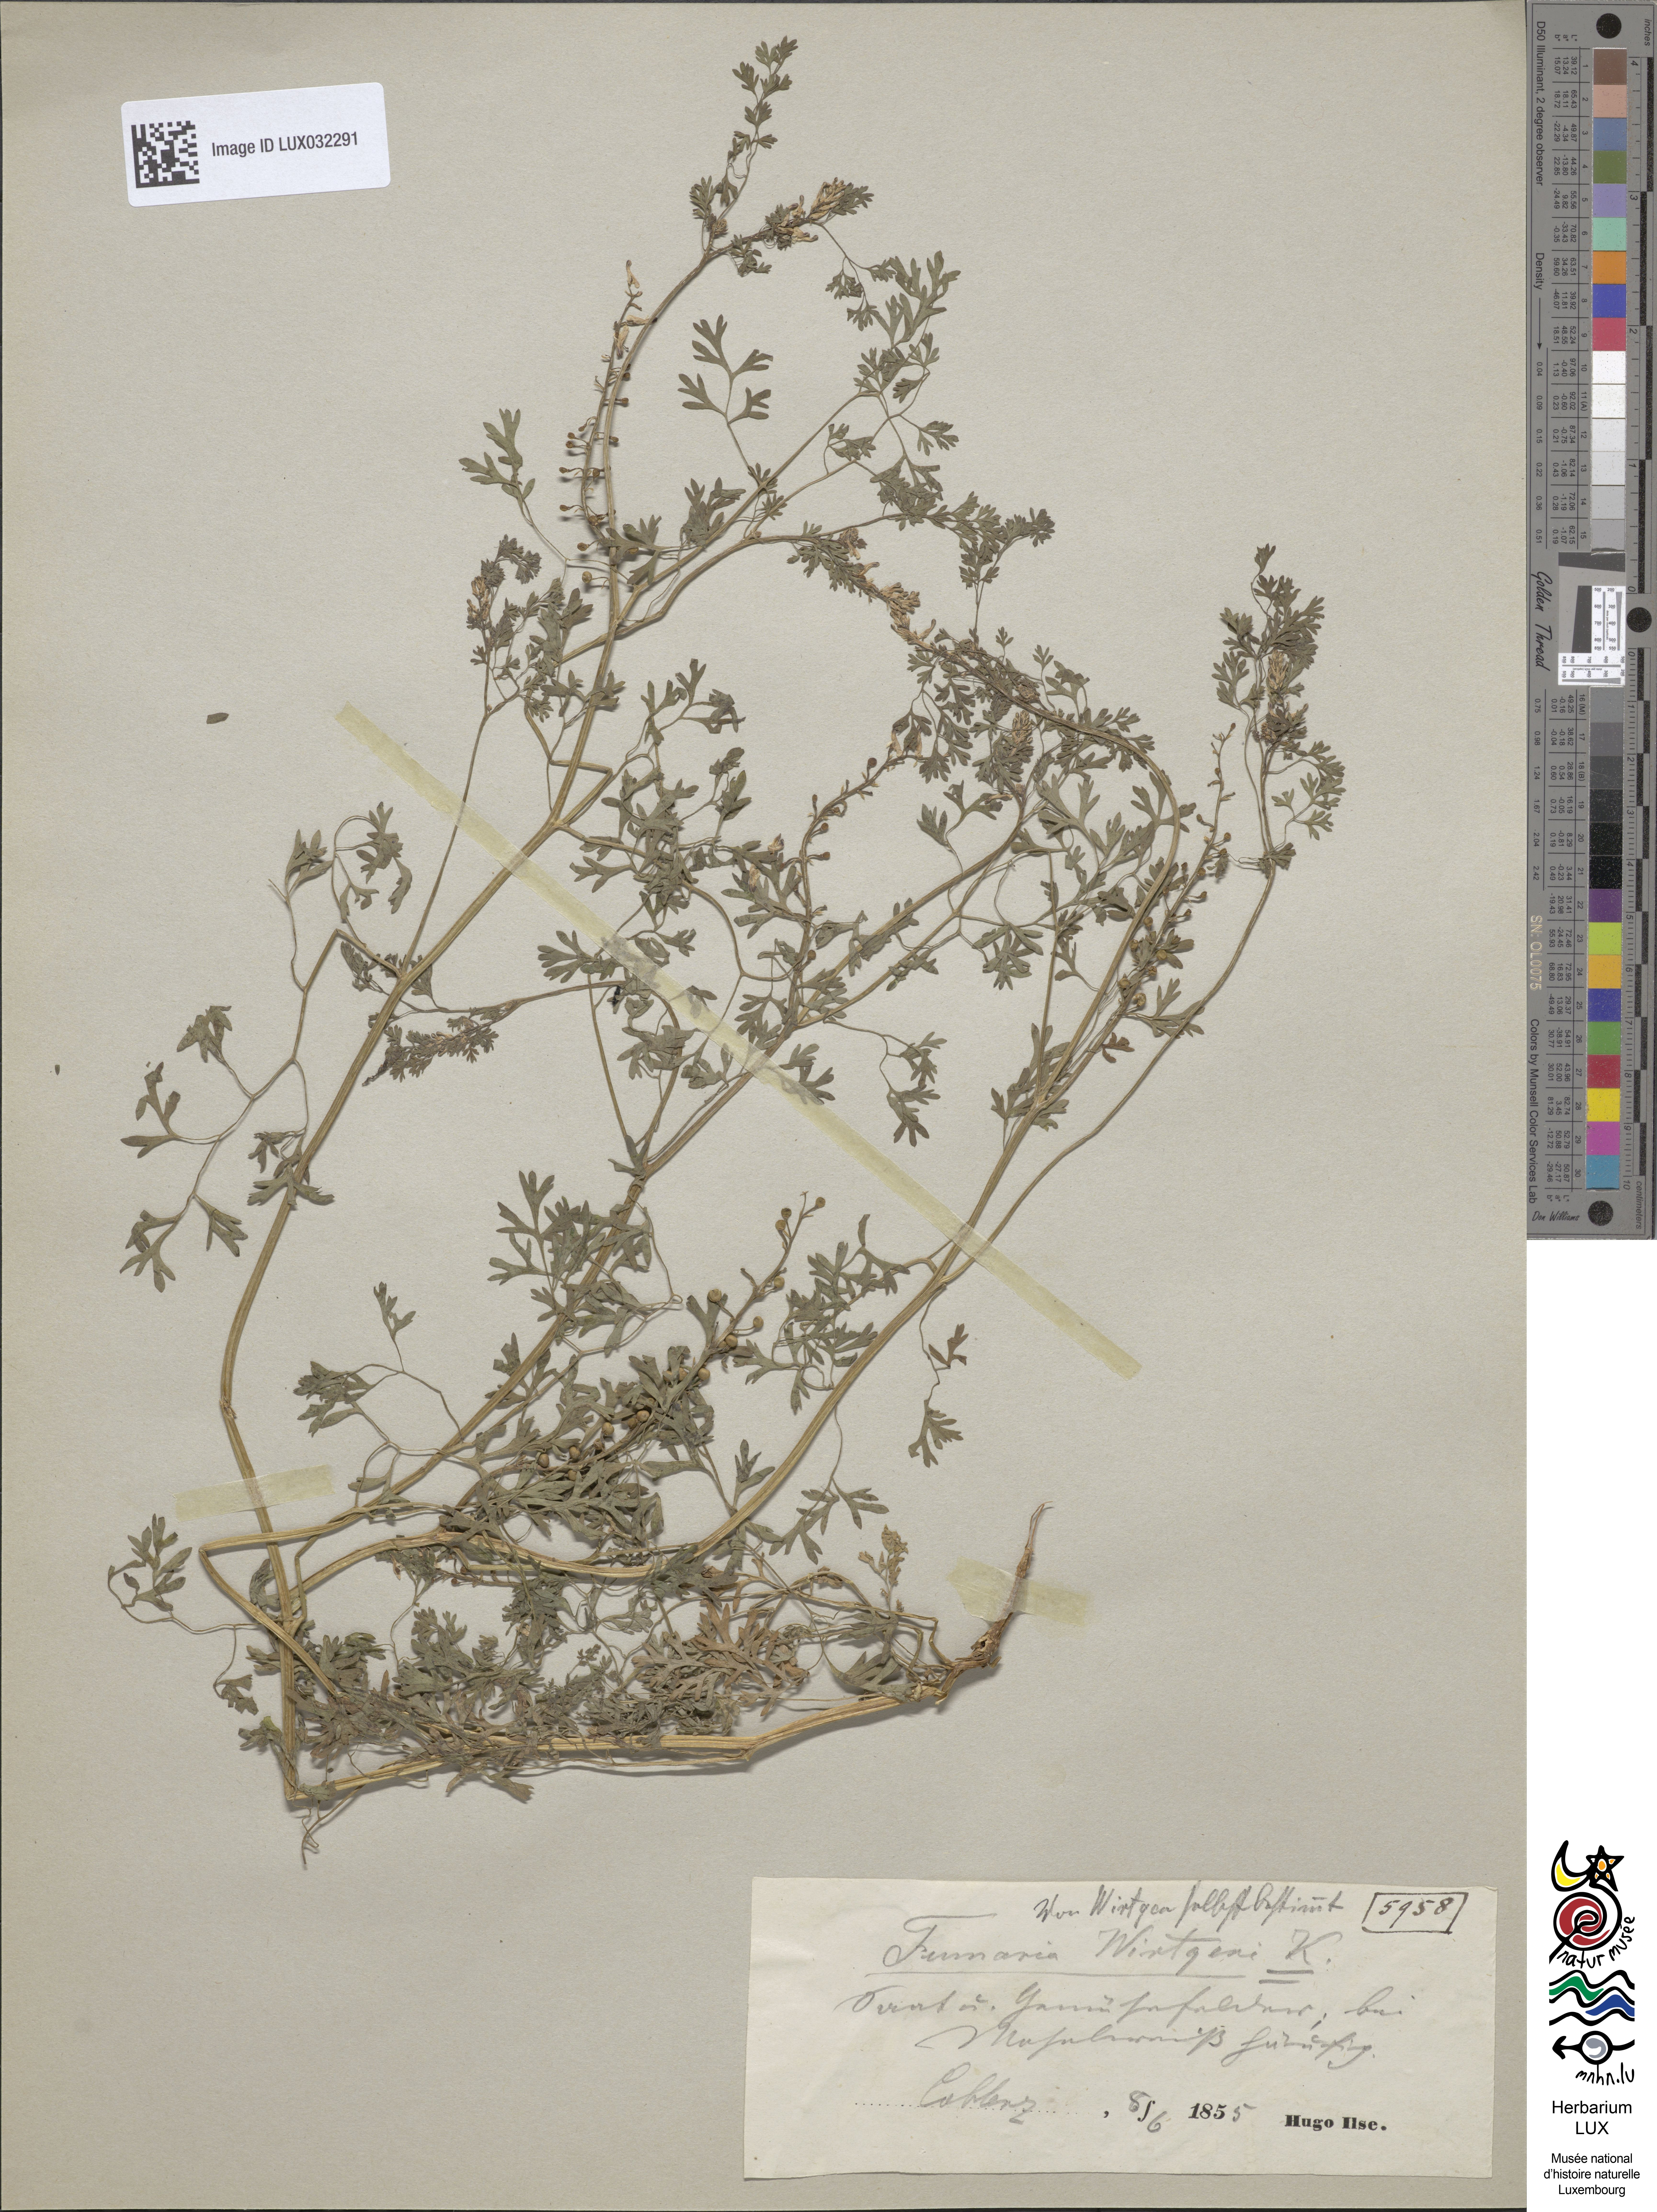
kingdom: Plantae
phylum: Tracheophyta
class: Magnoliopsida
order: Ranunculales
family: Papaveraceae
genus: Fumaria
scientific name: Fumaria wirtgenii
